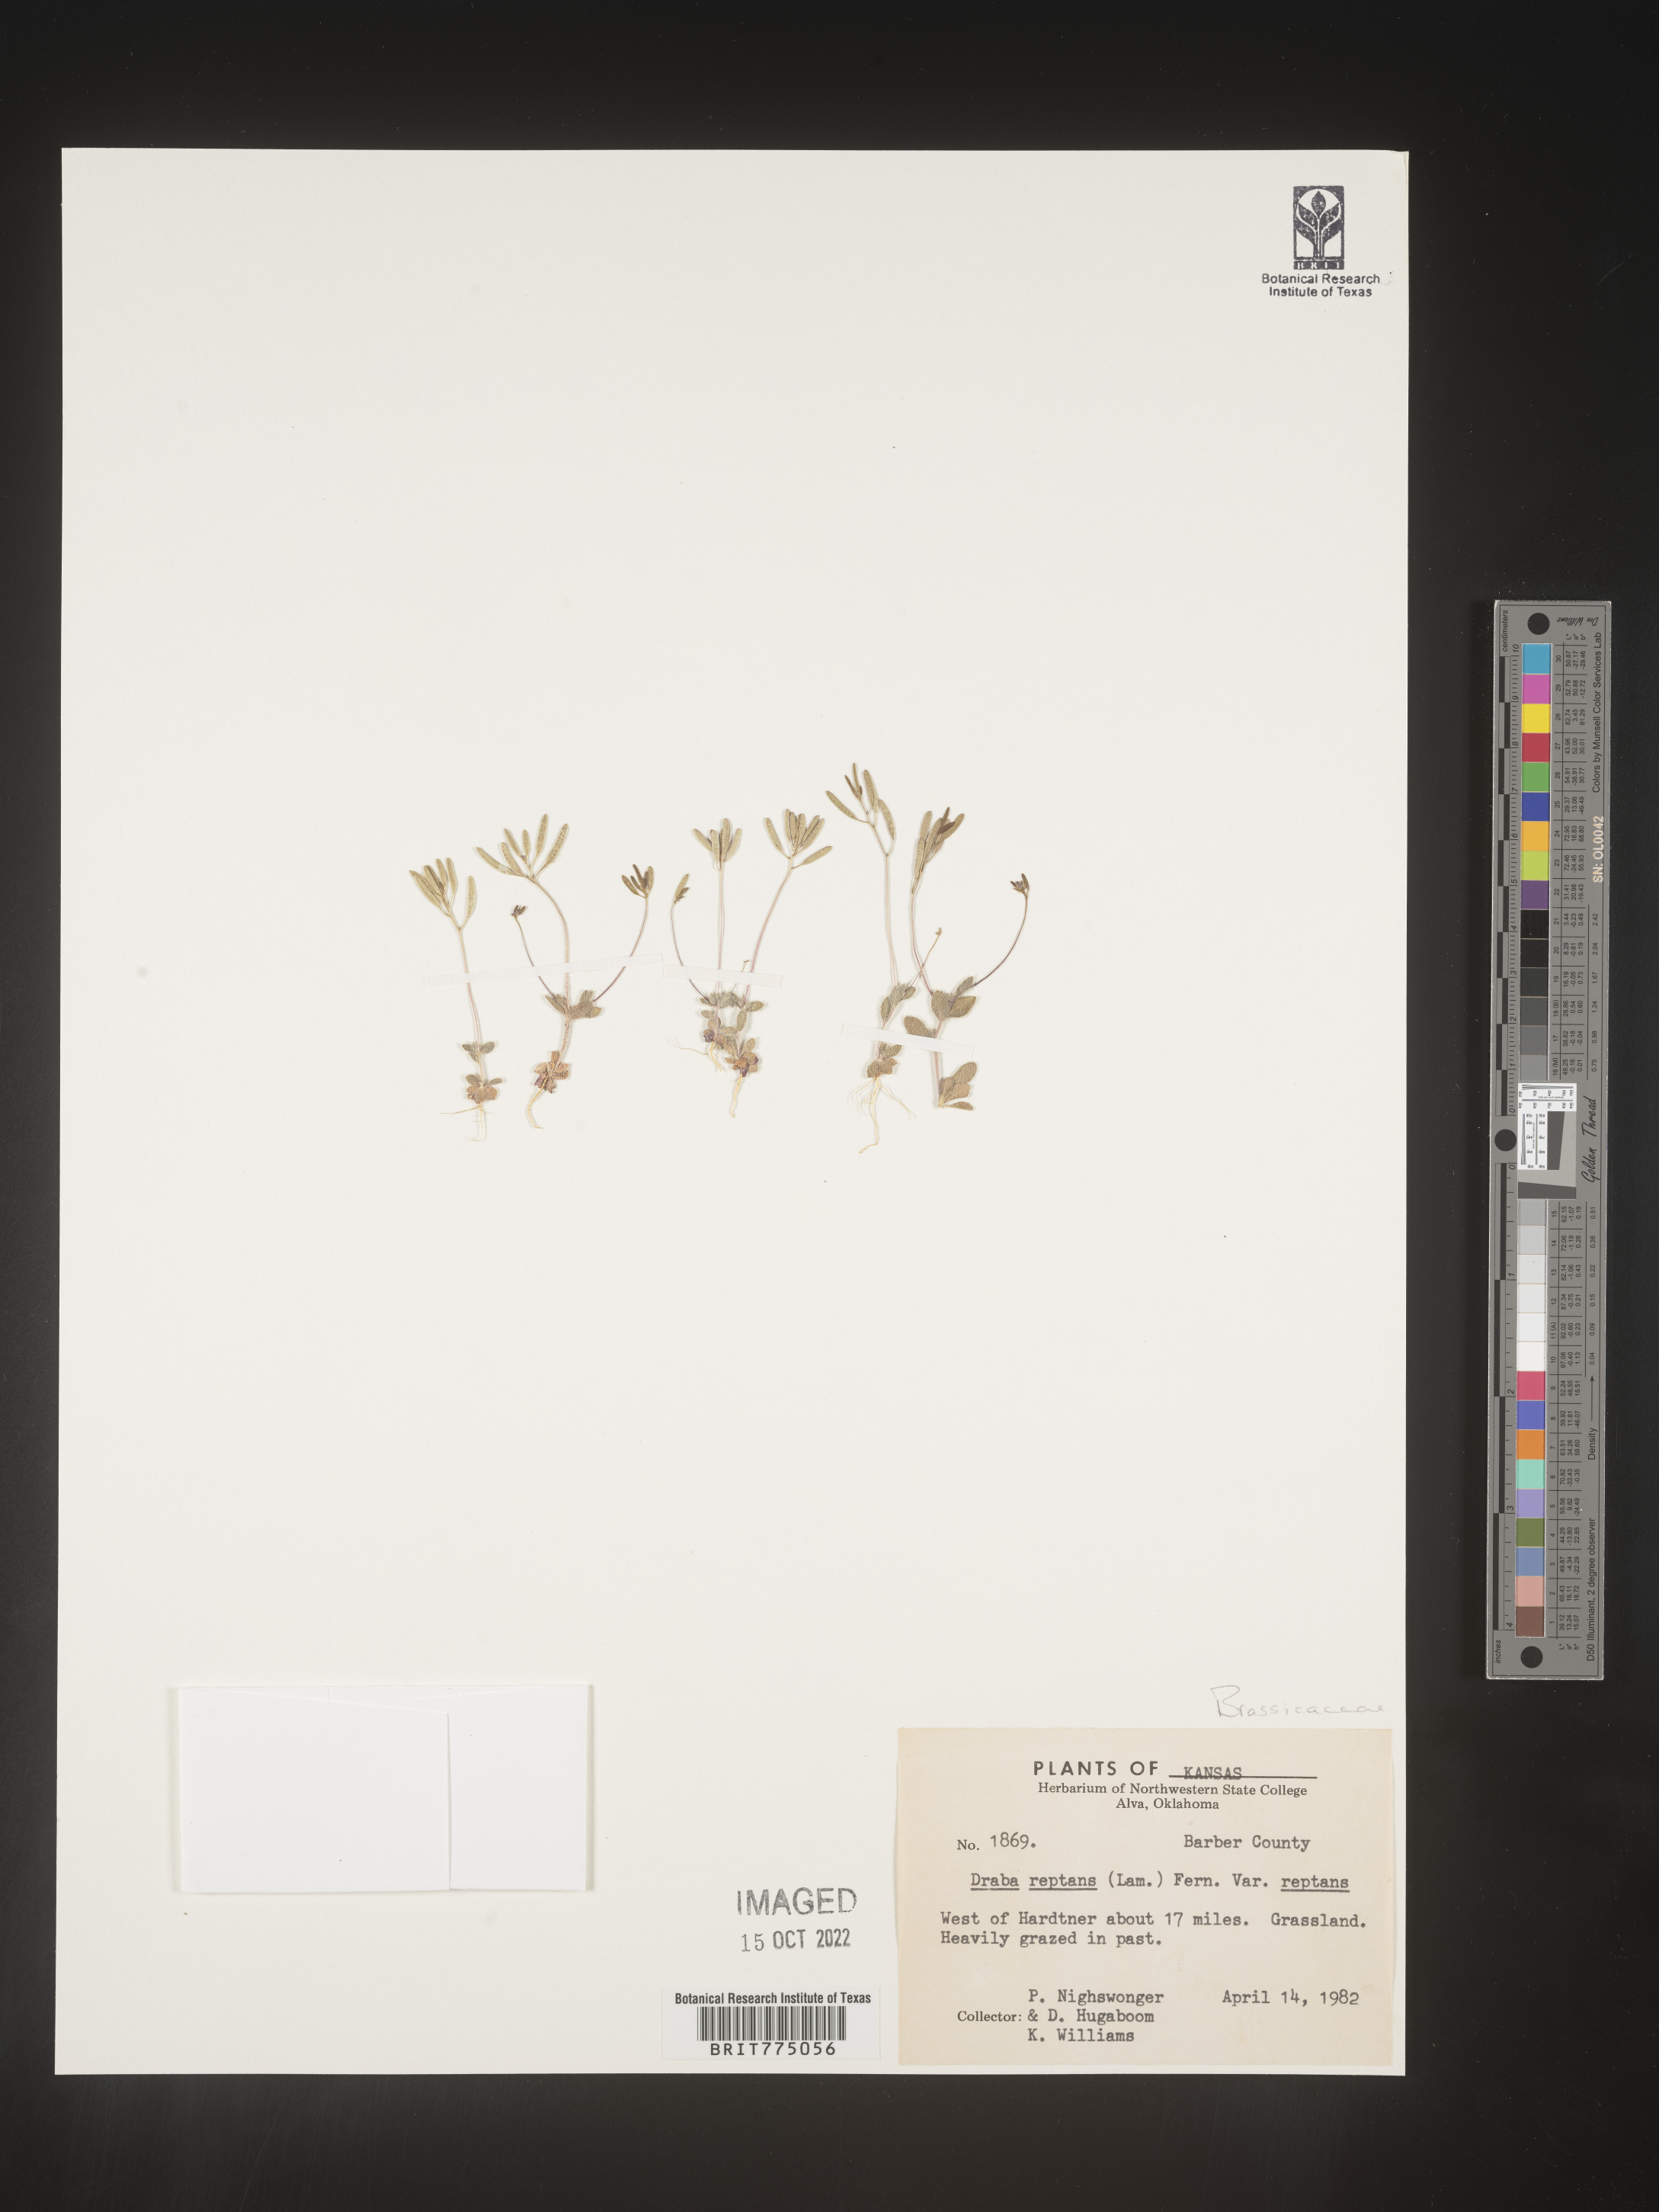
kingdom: Plantae
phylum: Tracheophyta
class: Magnoliopsida
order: Brassicales
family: Brassicaceae
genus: Tomostima
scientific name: Tomostima reptans
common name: Carolina draba
